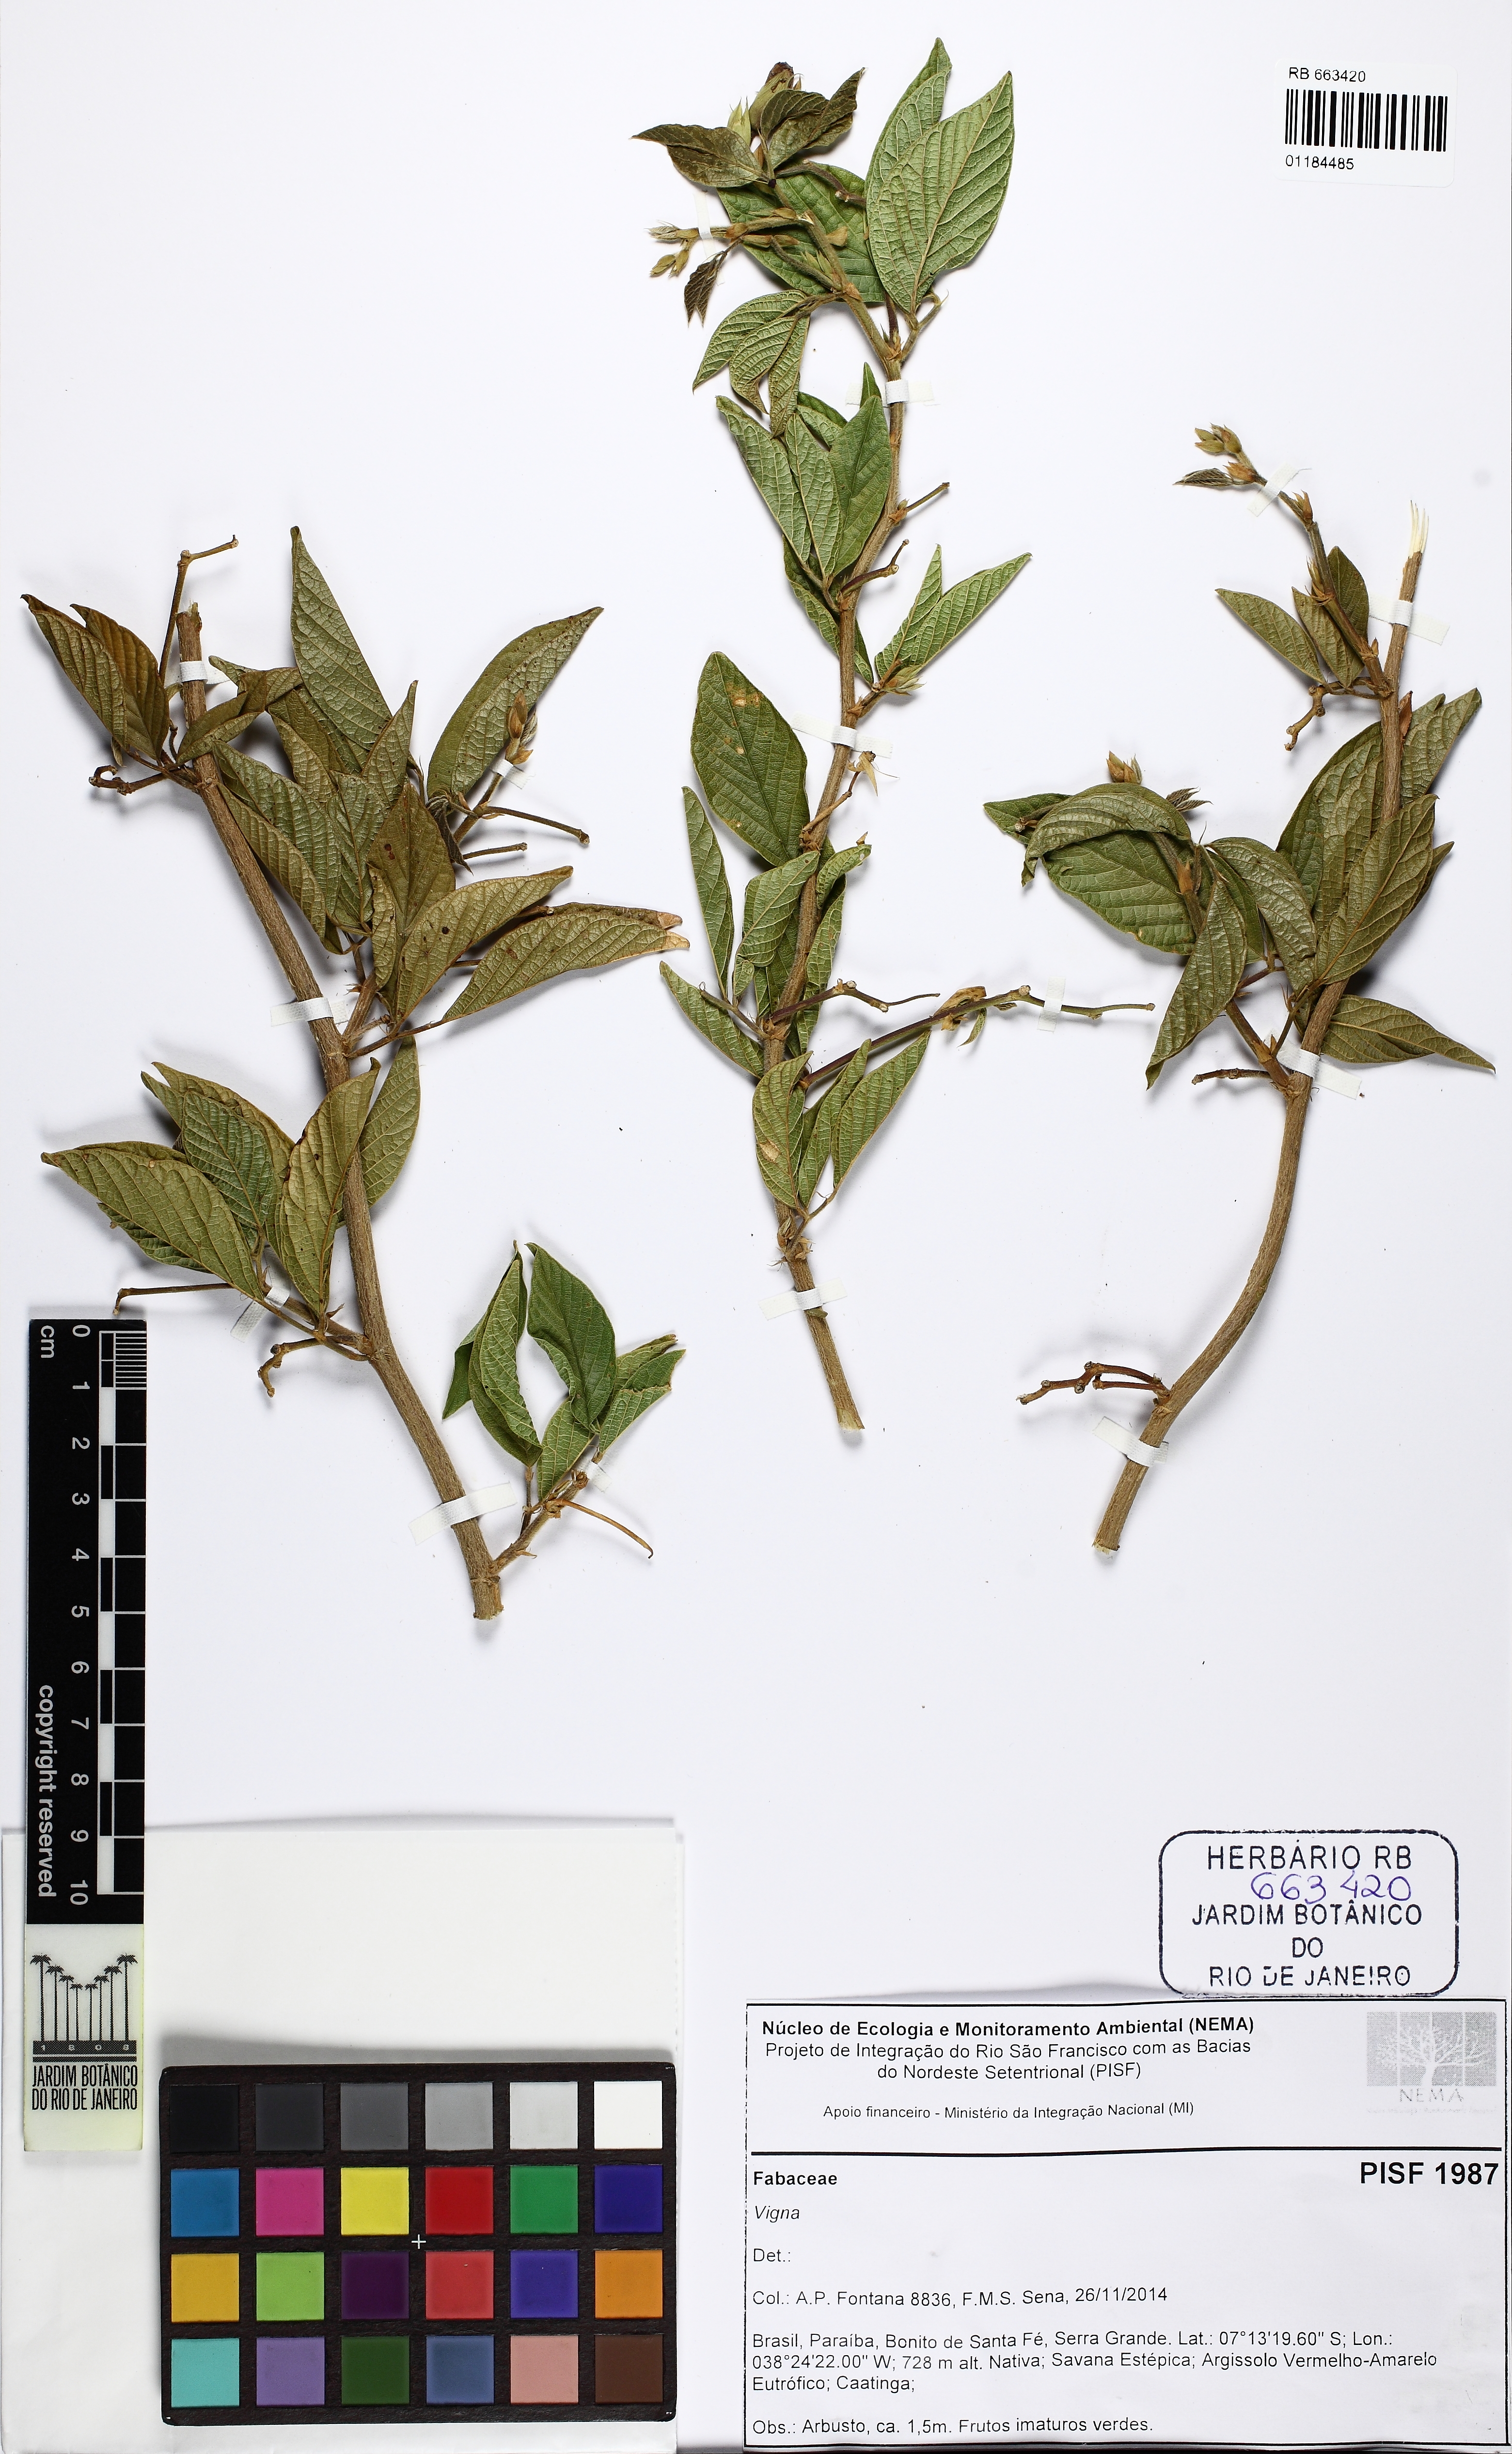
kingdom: Plantae
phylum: Tracheophyta
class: Magnoliopsida
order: Fabales
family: Fabaceae
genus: Vigna
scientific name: Vigna
